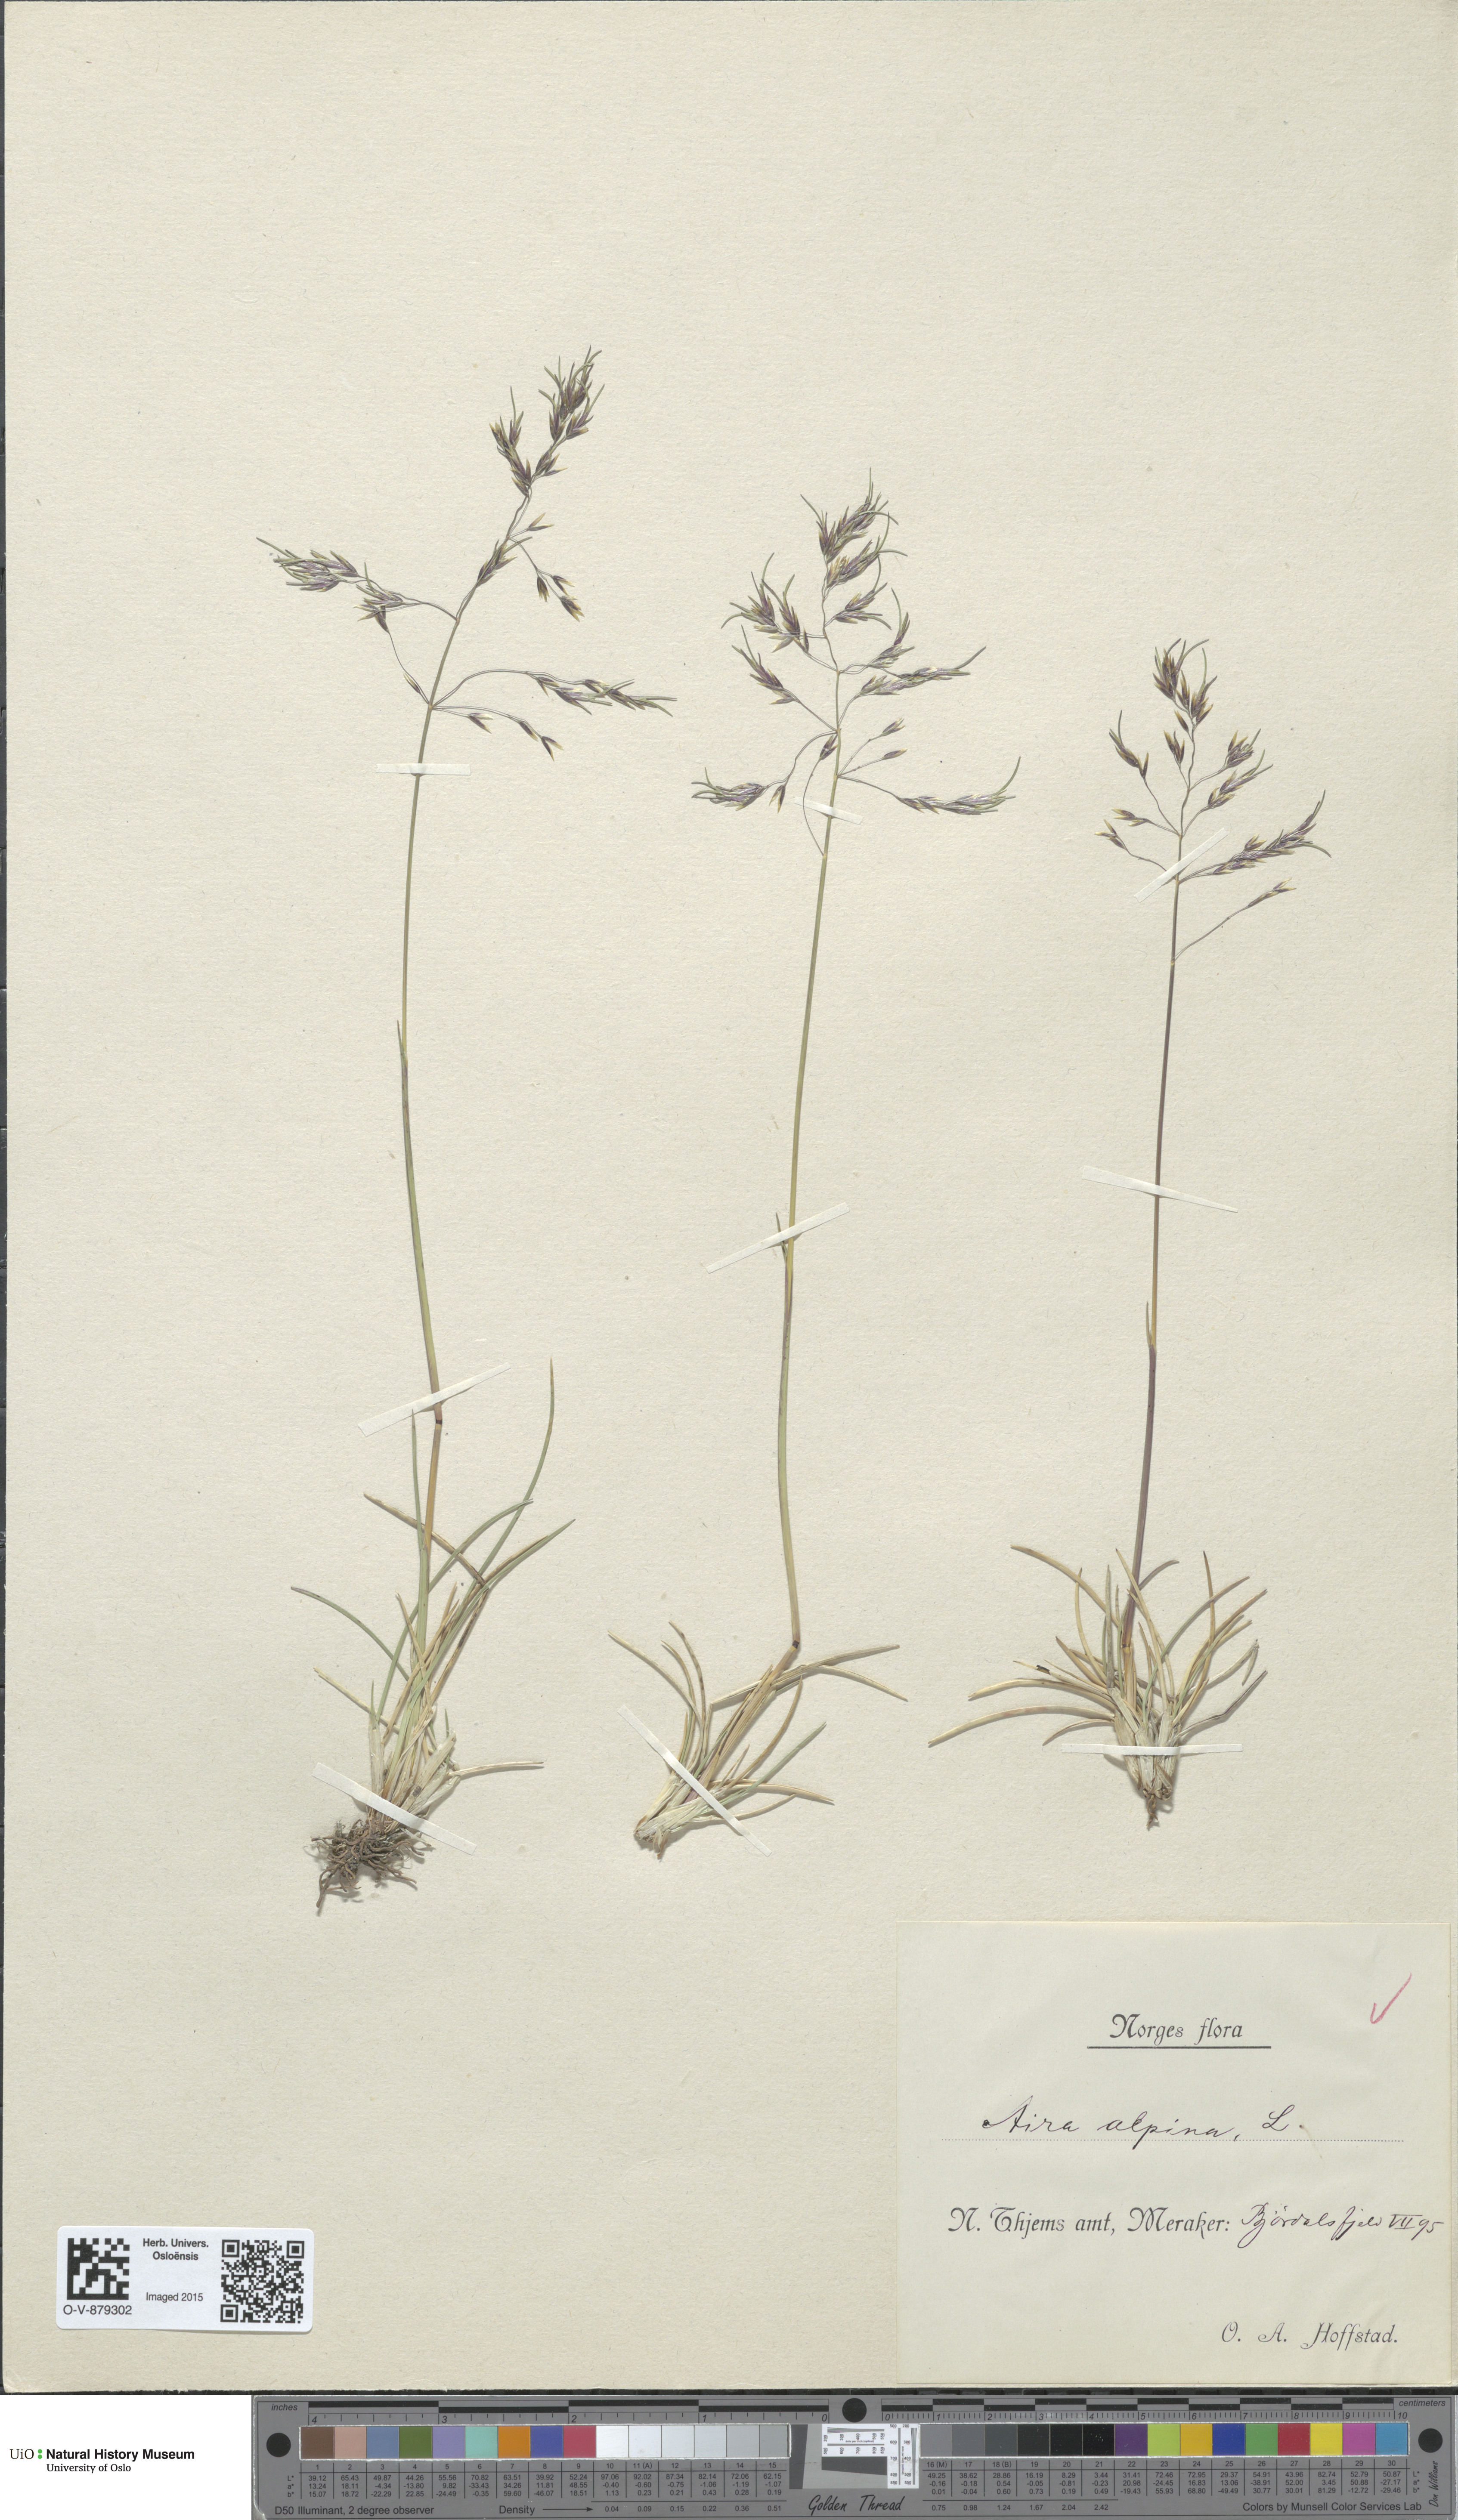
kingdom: Plantae
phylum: Tracheophyta
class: Liliopsida
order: Poales
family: Poaceae
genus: Deschampsia
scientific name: Deschampsia cespitosa
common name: Tufted hair-grass
